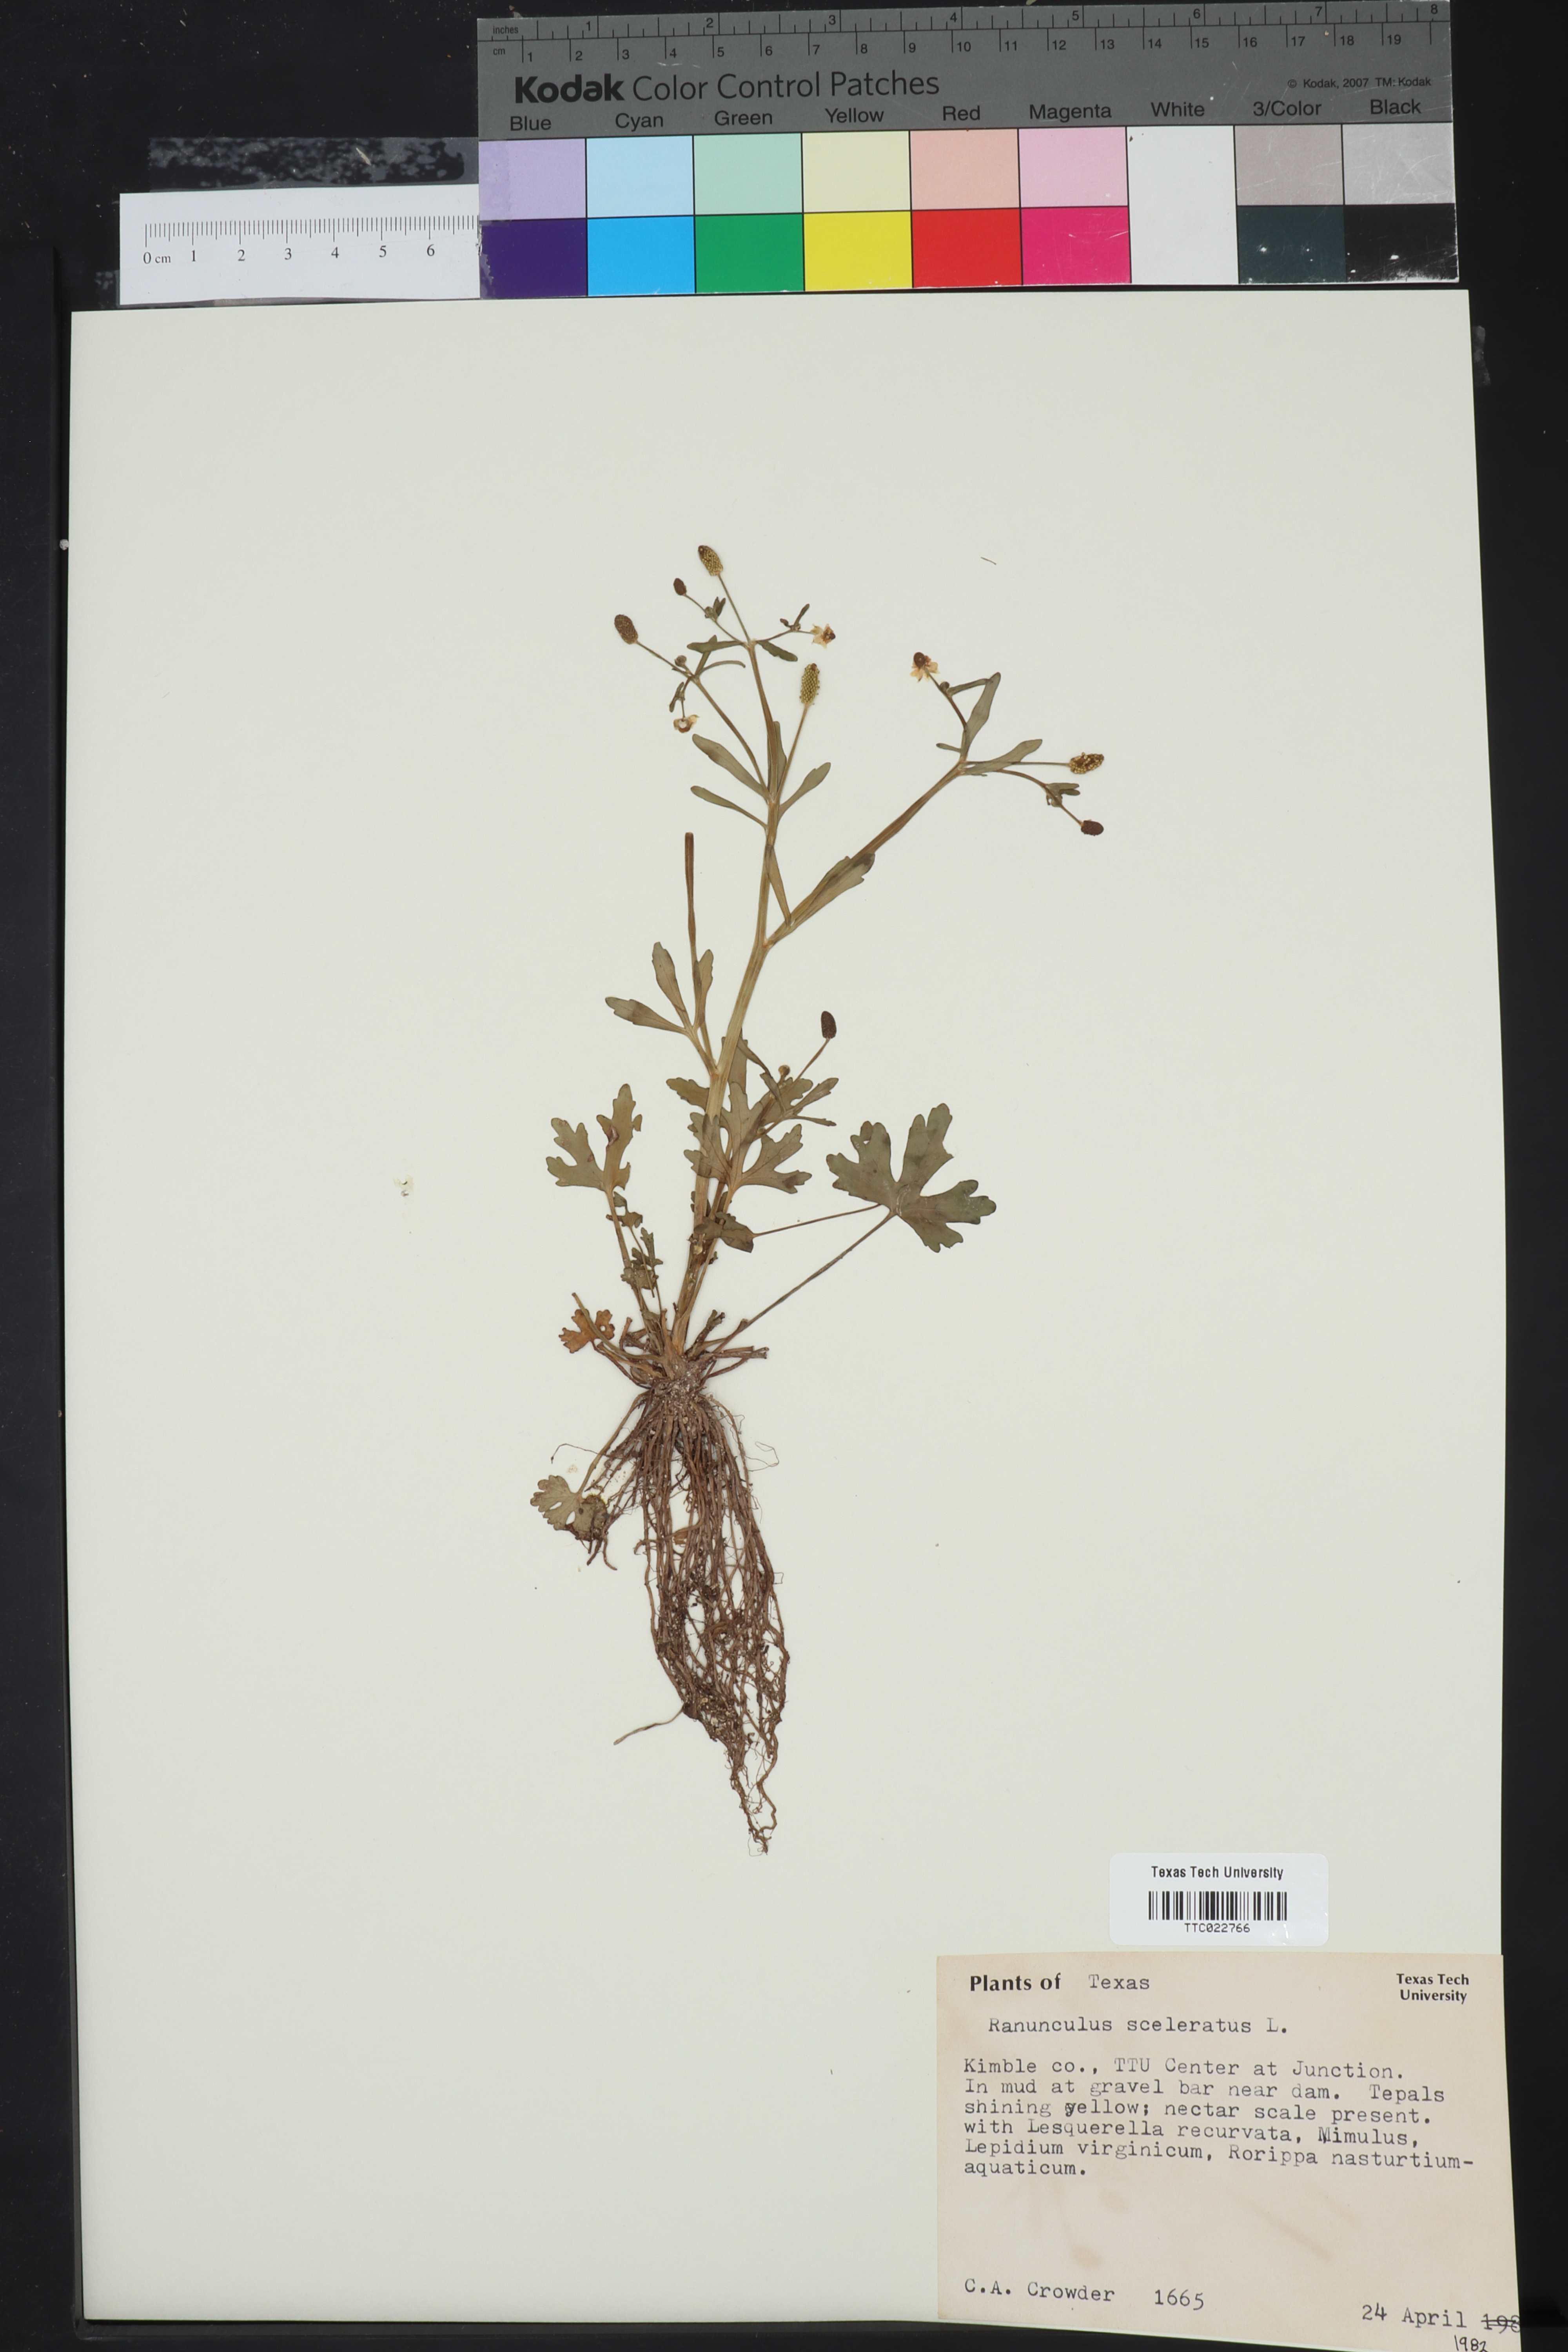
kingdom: Plantae
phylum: Tracheophyta
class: Magnoliopsida
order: Ranunculales
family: Ranunculaceae
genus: Ranunculus
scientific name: Ranunculus sceleratus
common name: Celery-leaved buttercup
